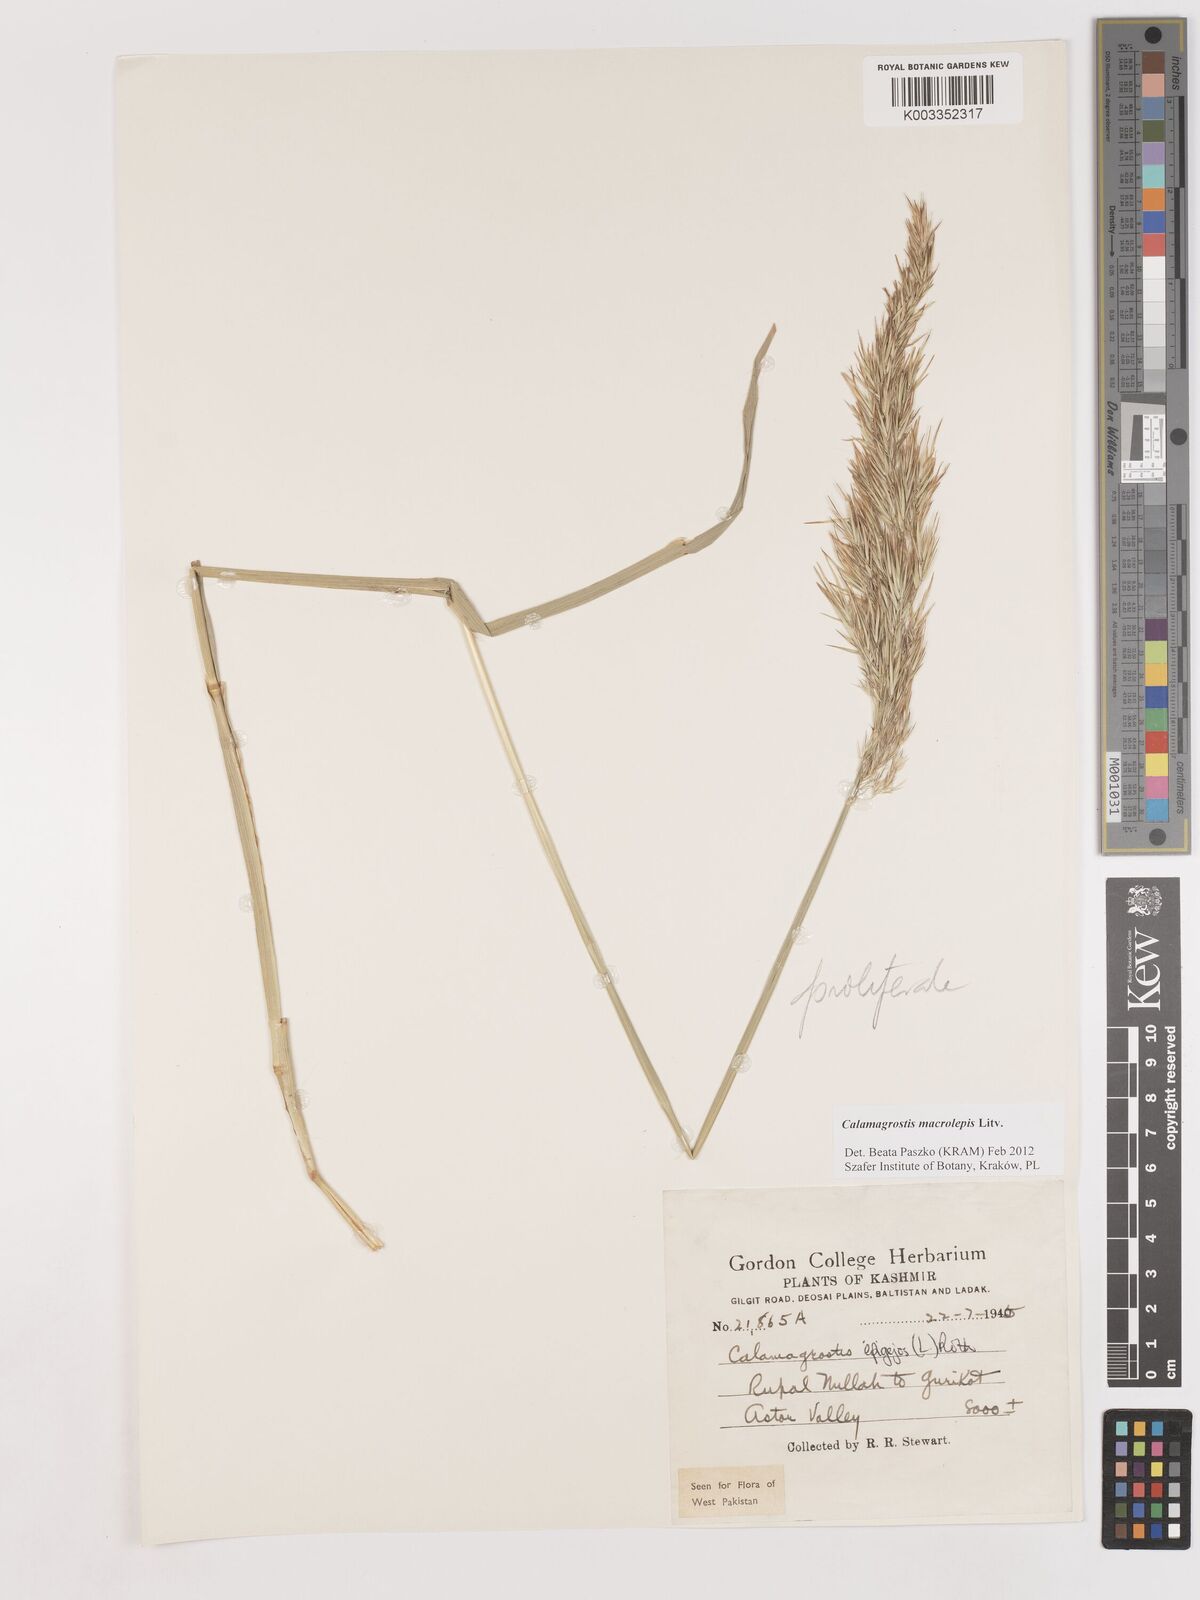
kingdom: Plantae
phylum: Tracheophyta
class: Liliopsida
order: Poales
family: Poaceae
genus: Calamagrostis
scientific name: Calamagrostis epigejos
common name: Wood small-reed
